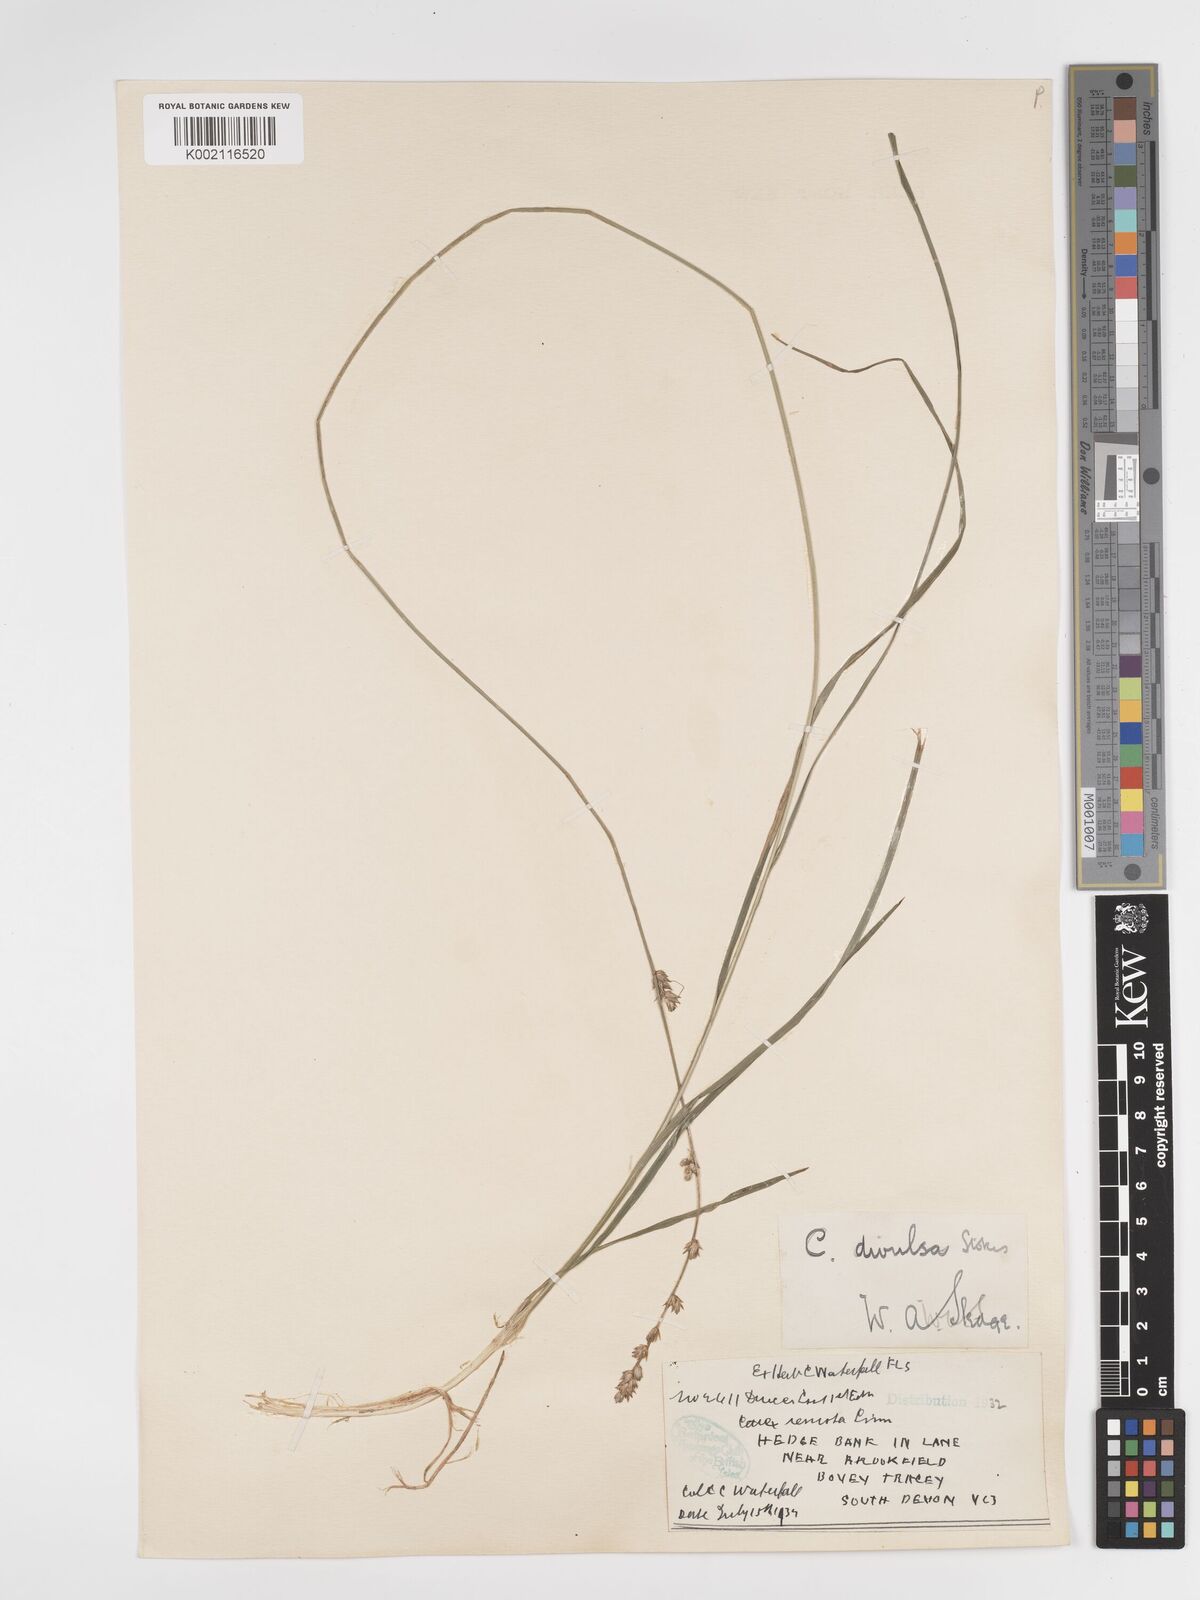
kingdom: Plantae
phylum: Tracheophyta
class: Liliopsida
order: Poales
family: Cyperaceae
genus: Carex
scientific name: Carex divulsa
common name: Grassland sedge
